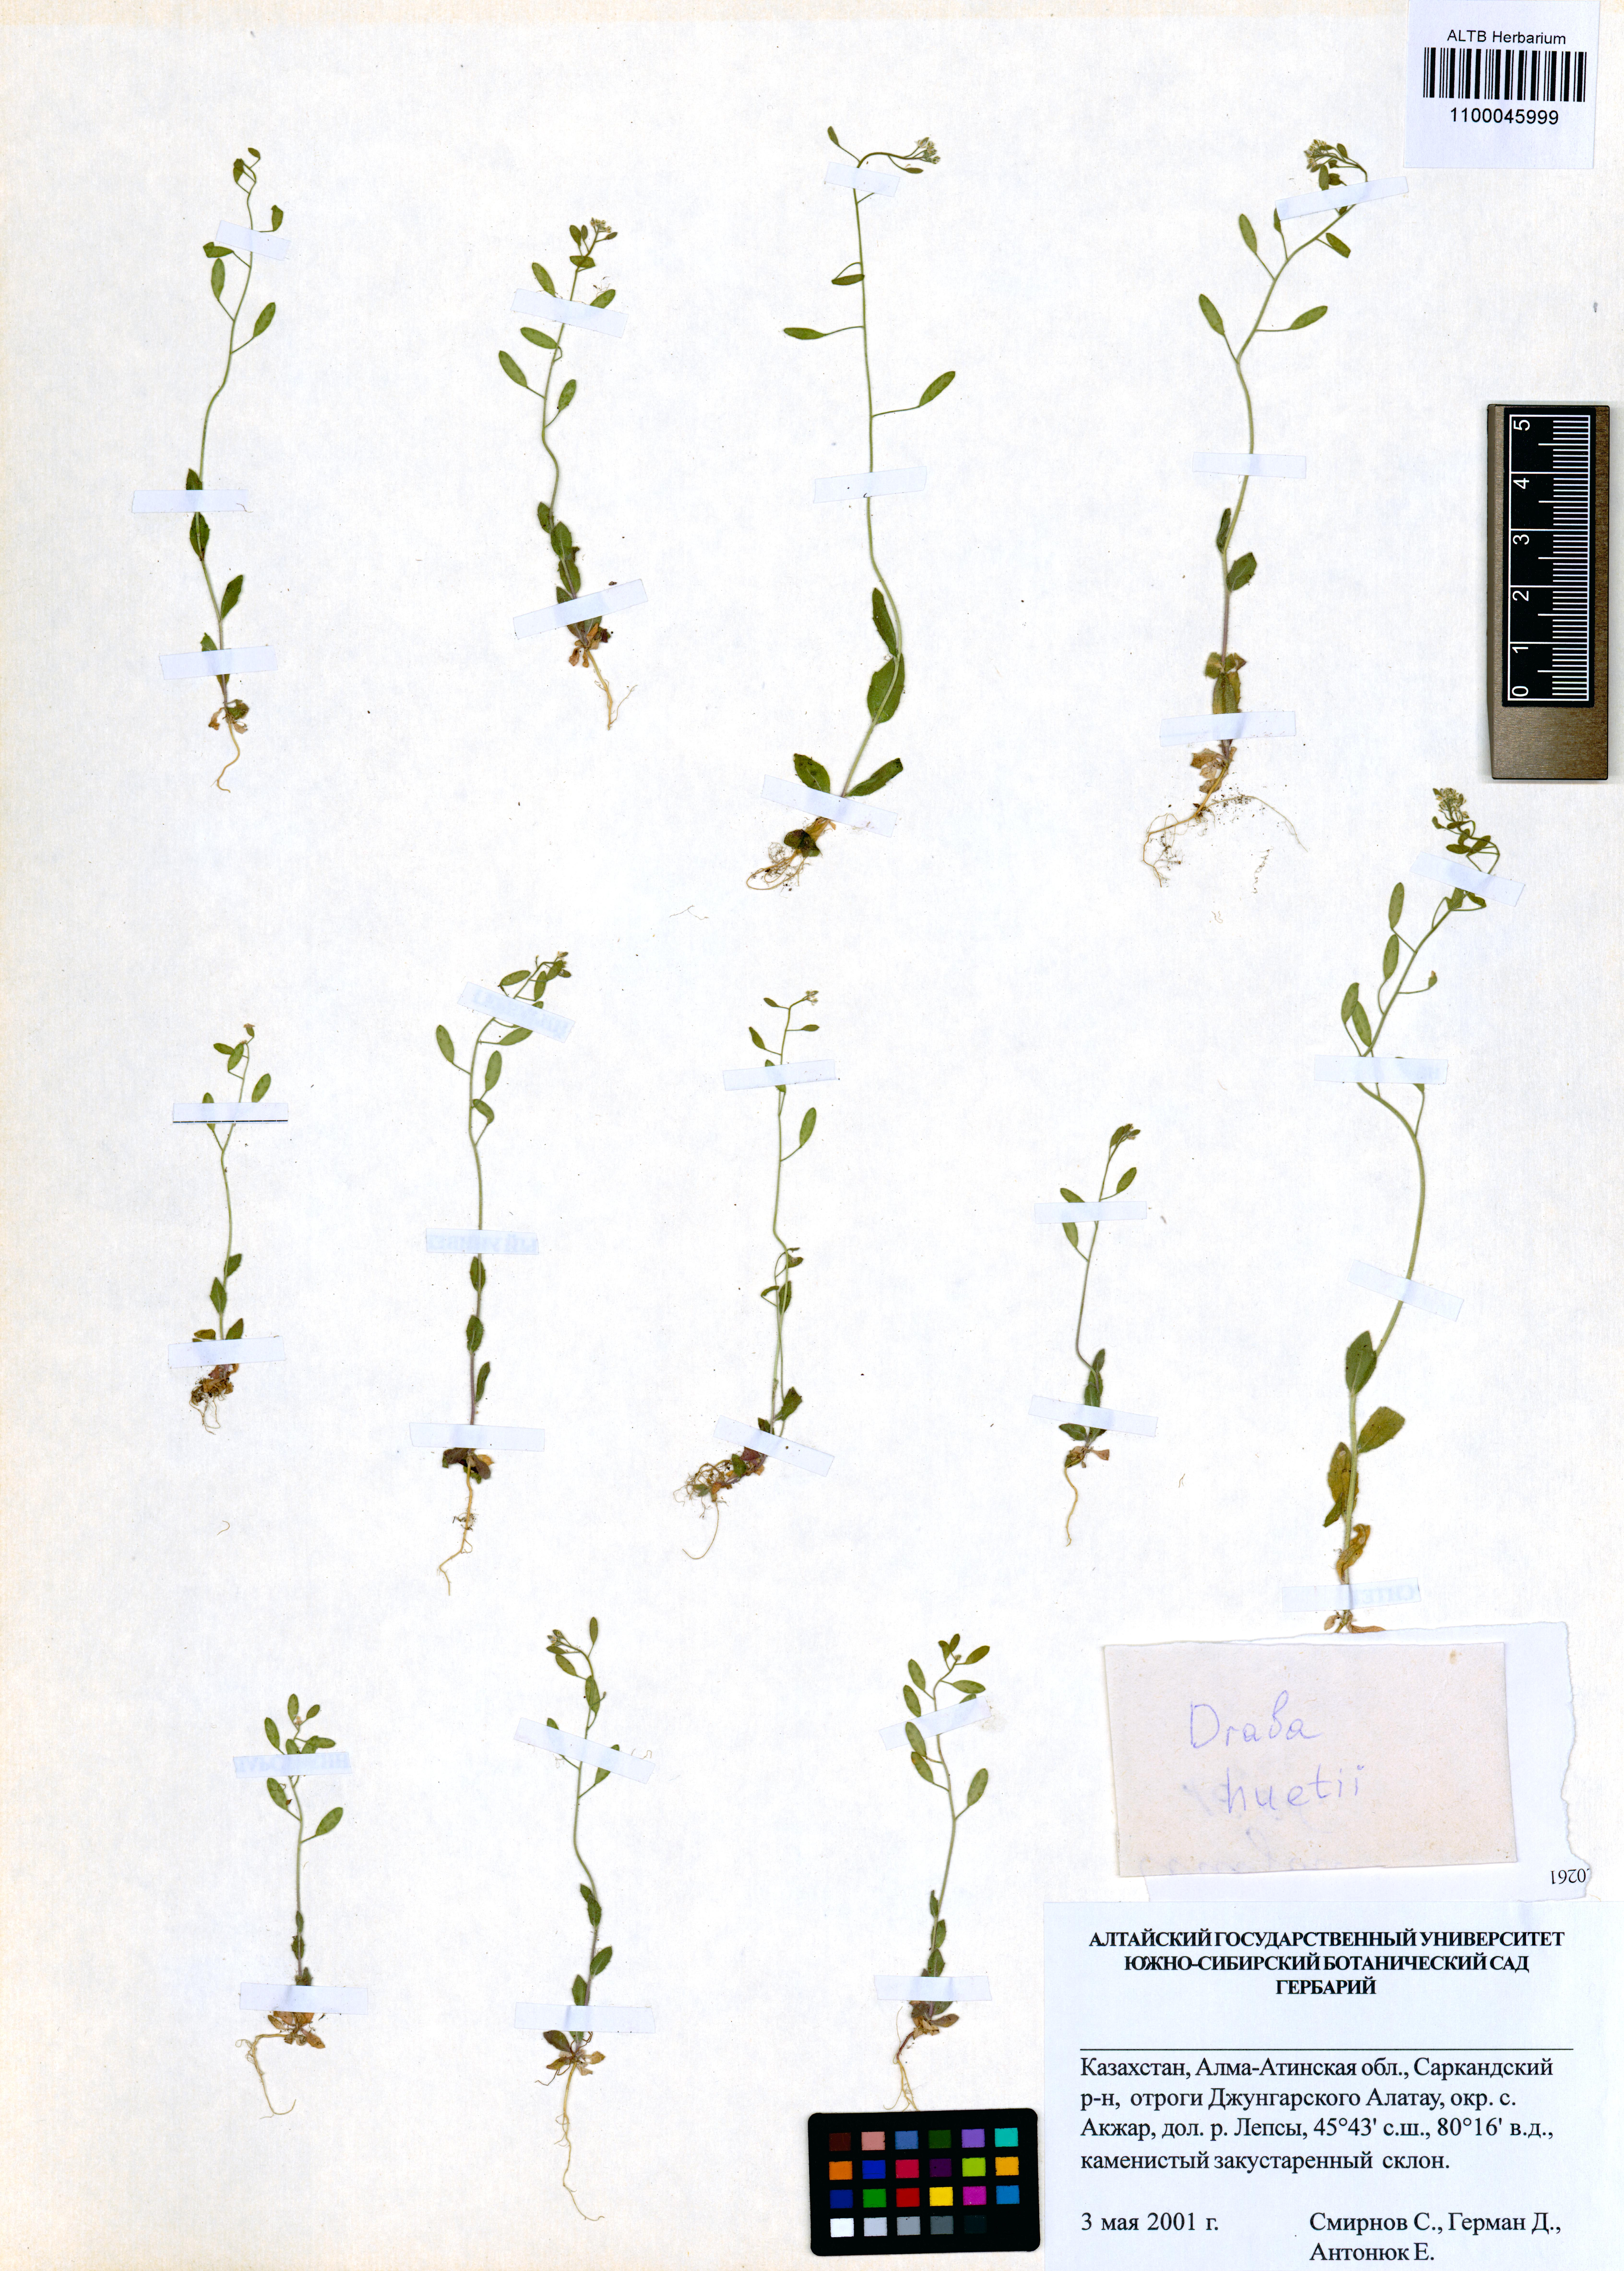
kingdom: Plantae
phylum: Tracheophyta
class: Magnoliopsida
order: Brassicales
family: Brassicaceae
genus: Draba
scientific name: Draba huetii
